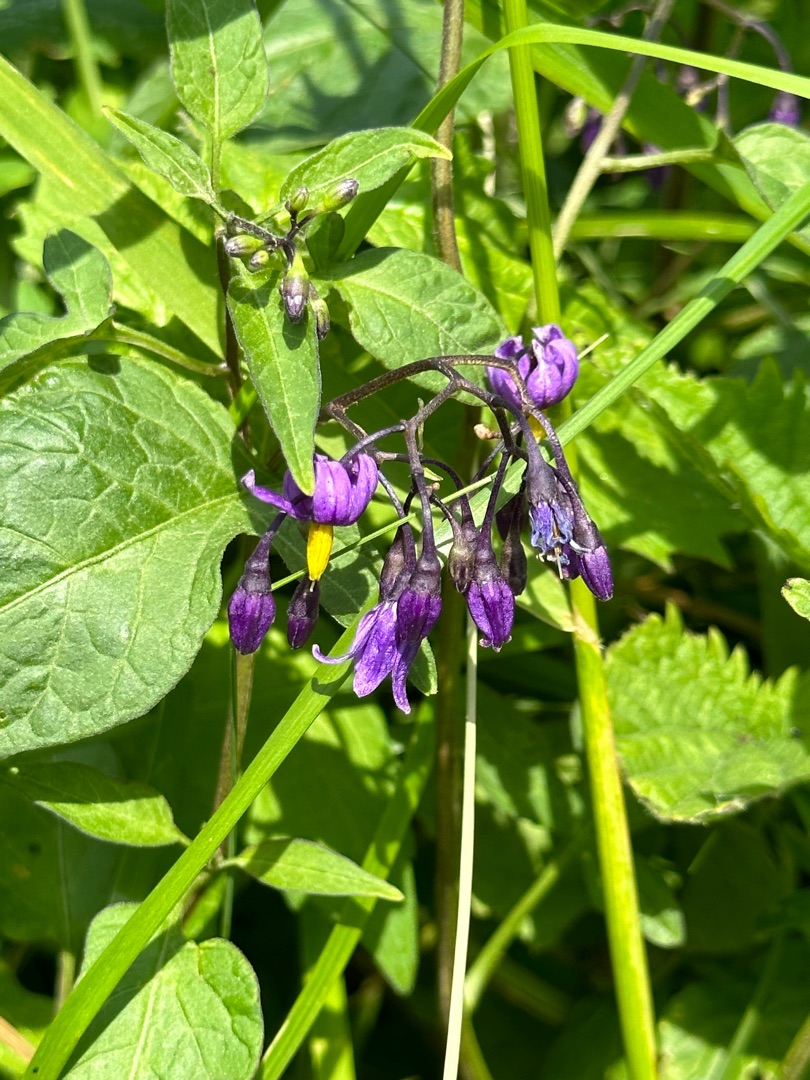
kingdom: Plantae
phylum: Tracheophyta
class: Magnoliopsida
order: Solanales
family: Solanaceae
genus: Solanum
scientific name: Solanum dulcamara
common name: Bittersød natskygge
